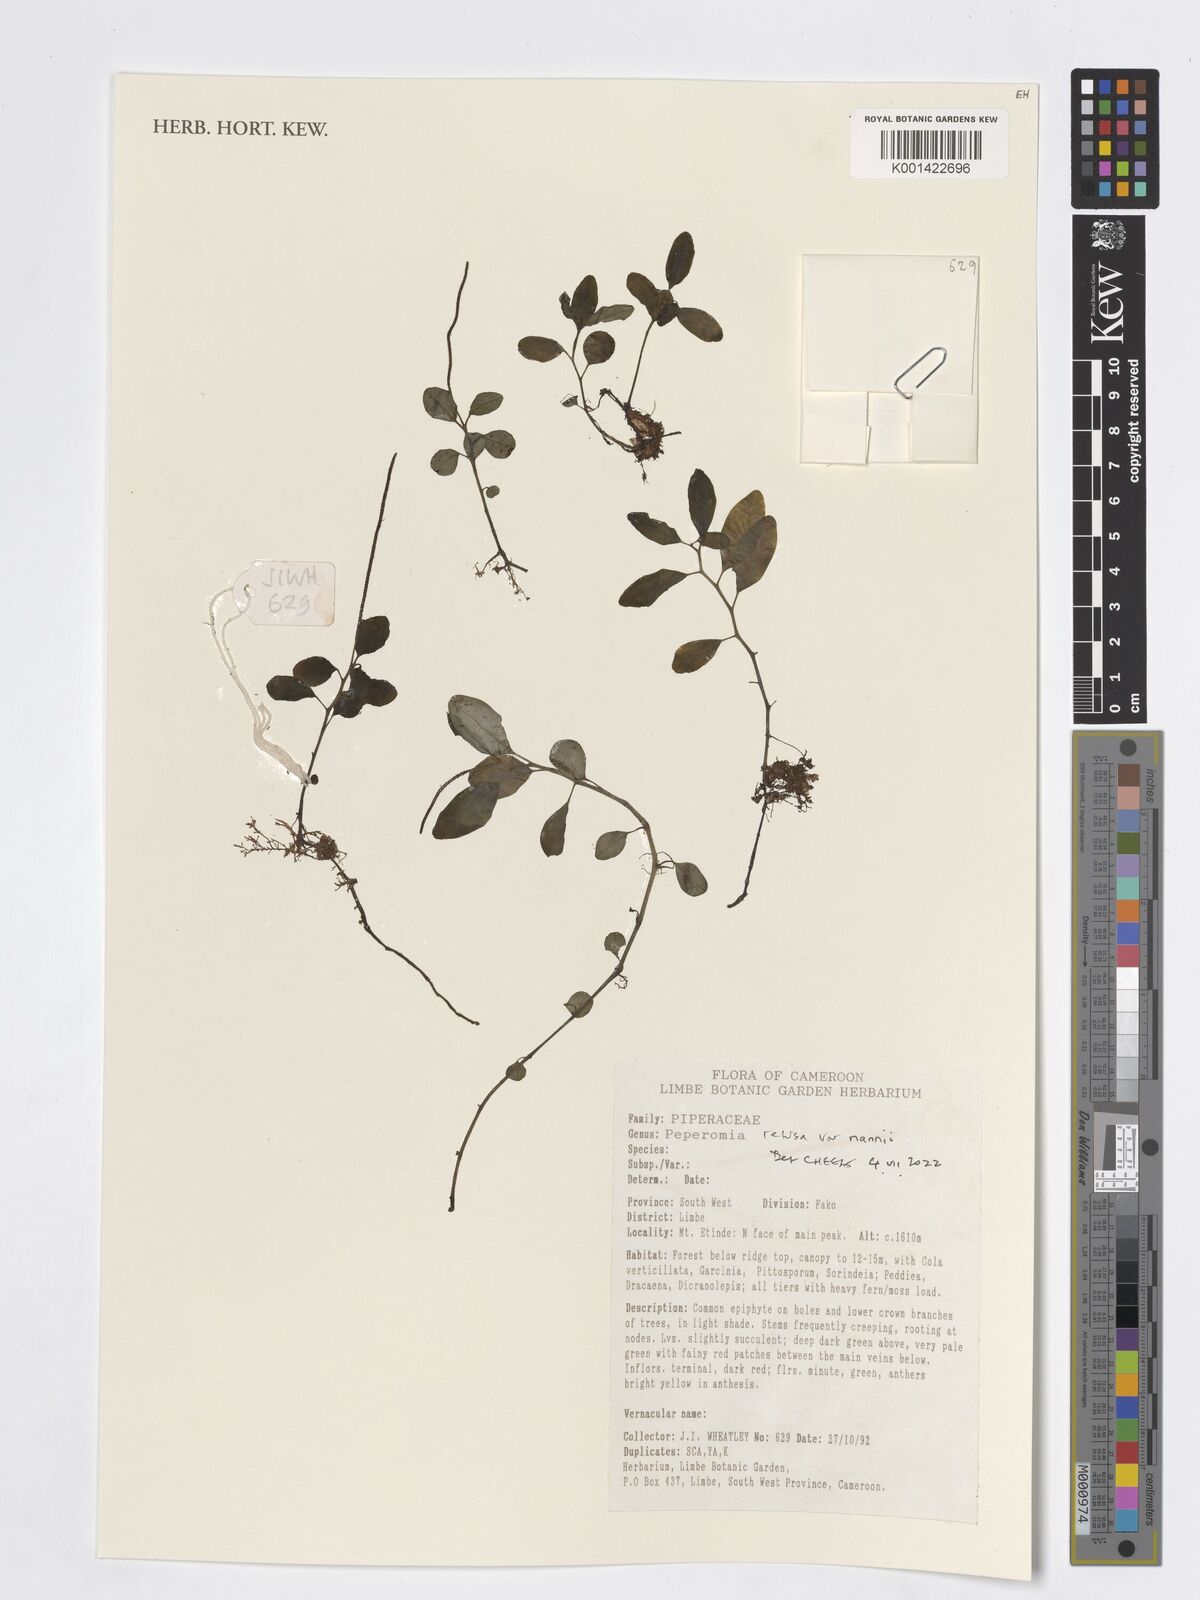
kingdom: Plantae
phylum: Tracheophyta
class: Magnoliopsida
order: Piperales
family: Piperaceae
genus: Peperomia
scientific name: Peperomia
